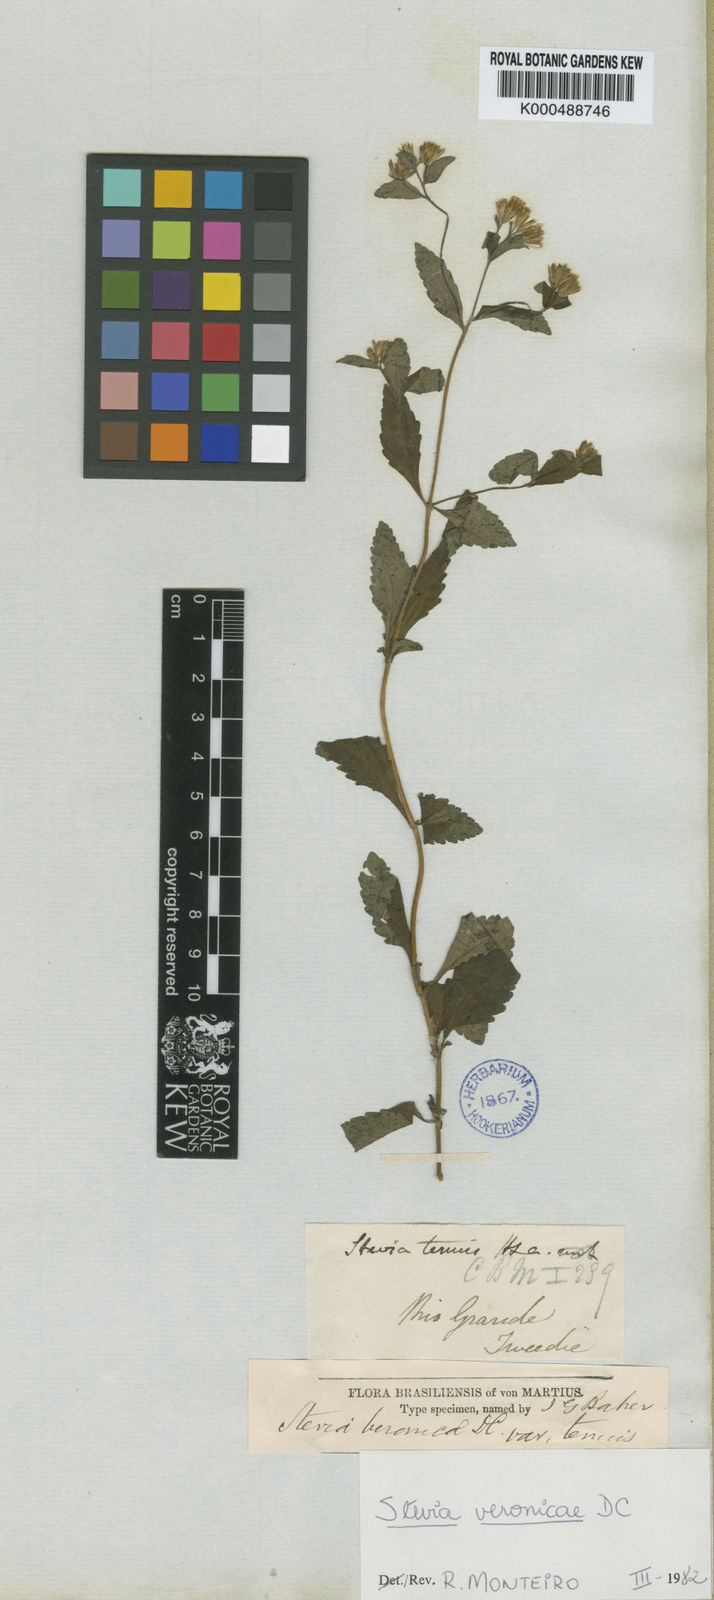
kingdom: Plantae
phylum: Tracheophyta
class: Magnoliopsida
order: Asterales
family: Asteraceae
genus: Stevia
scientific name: Stevia veronicae
